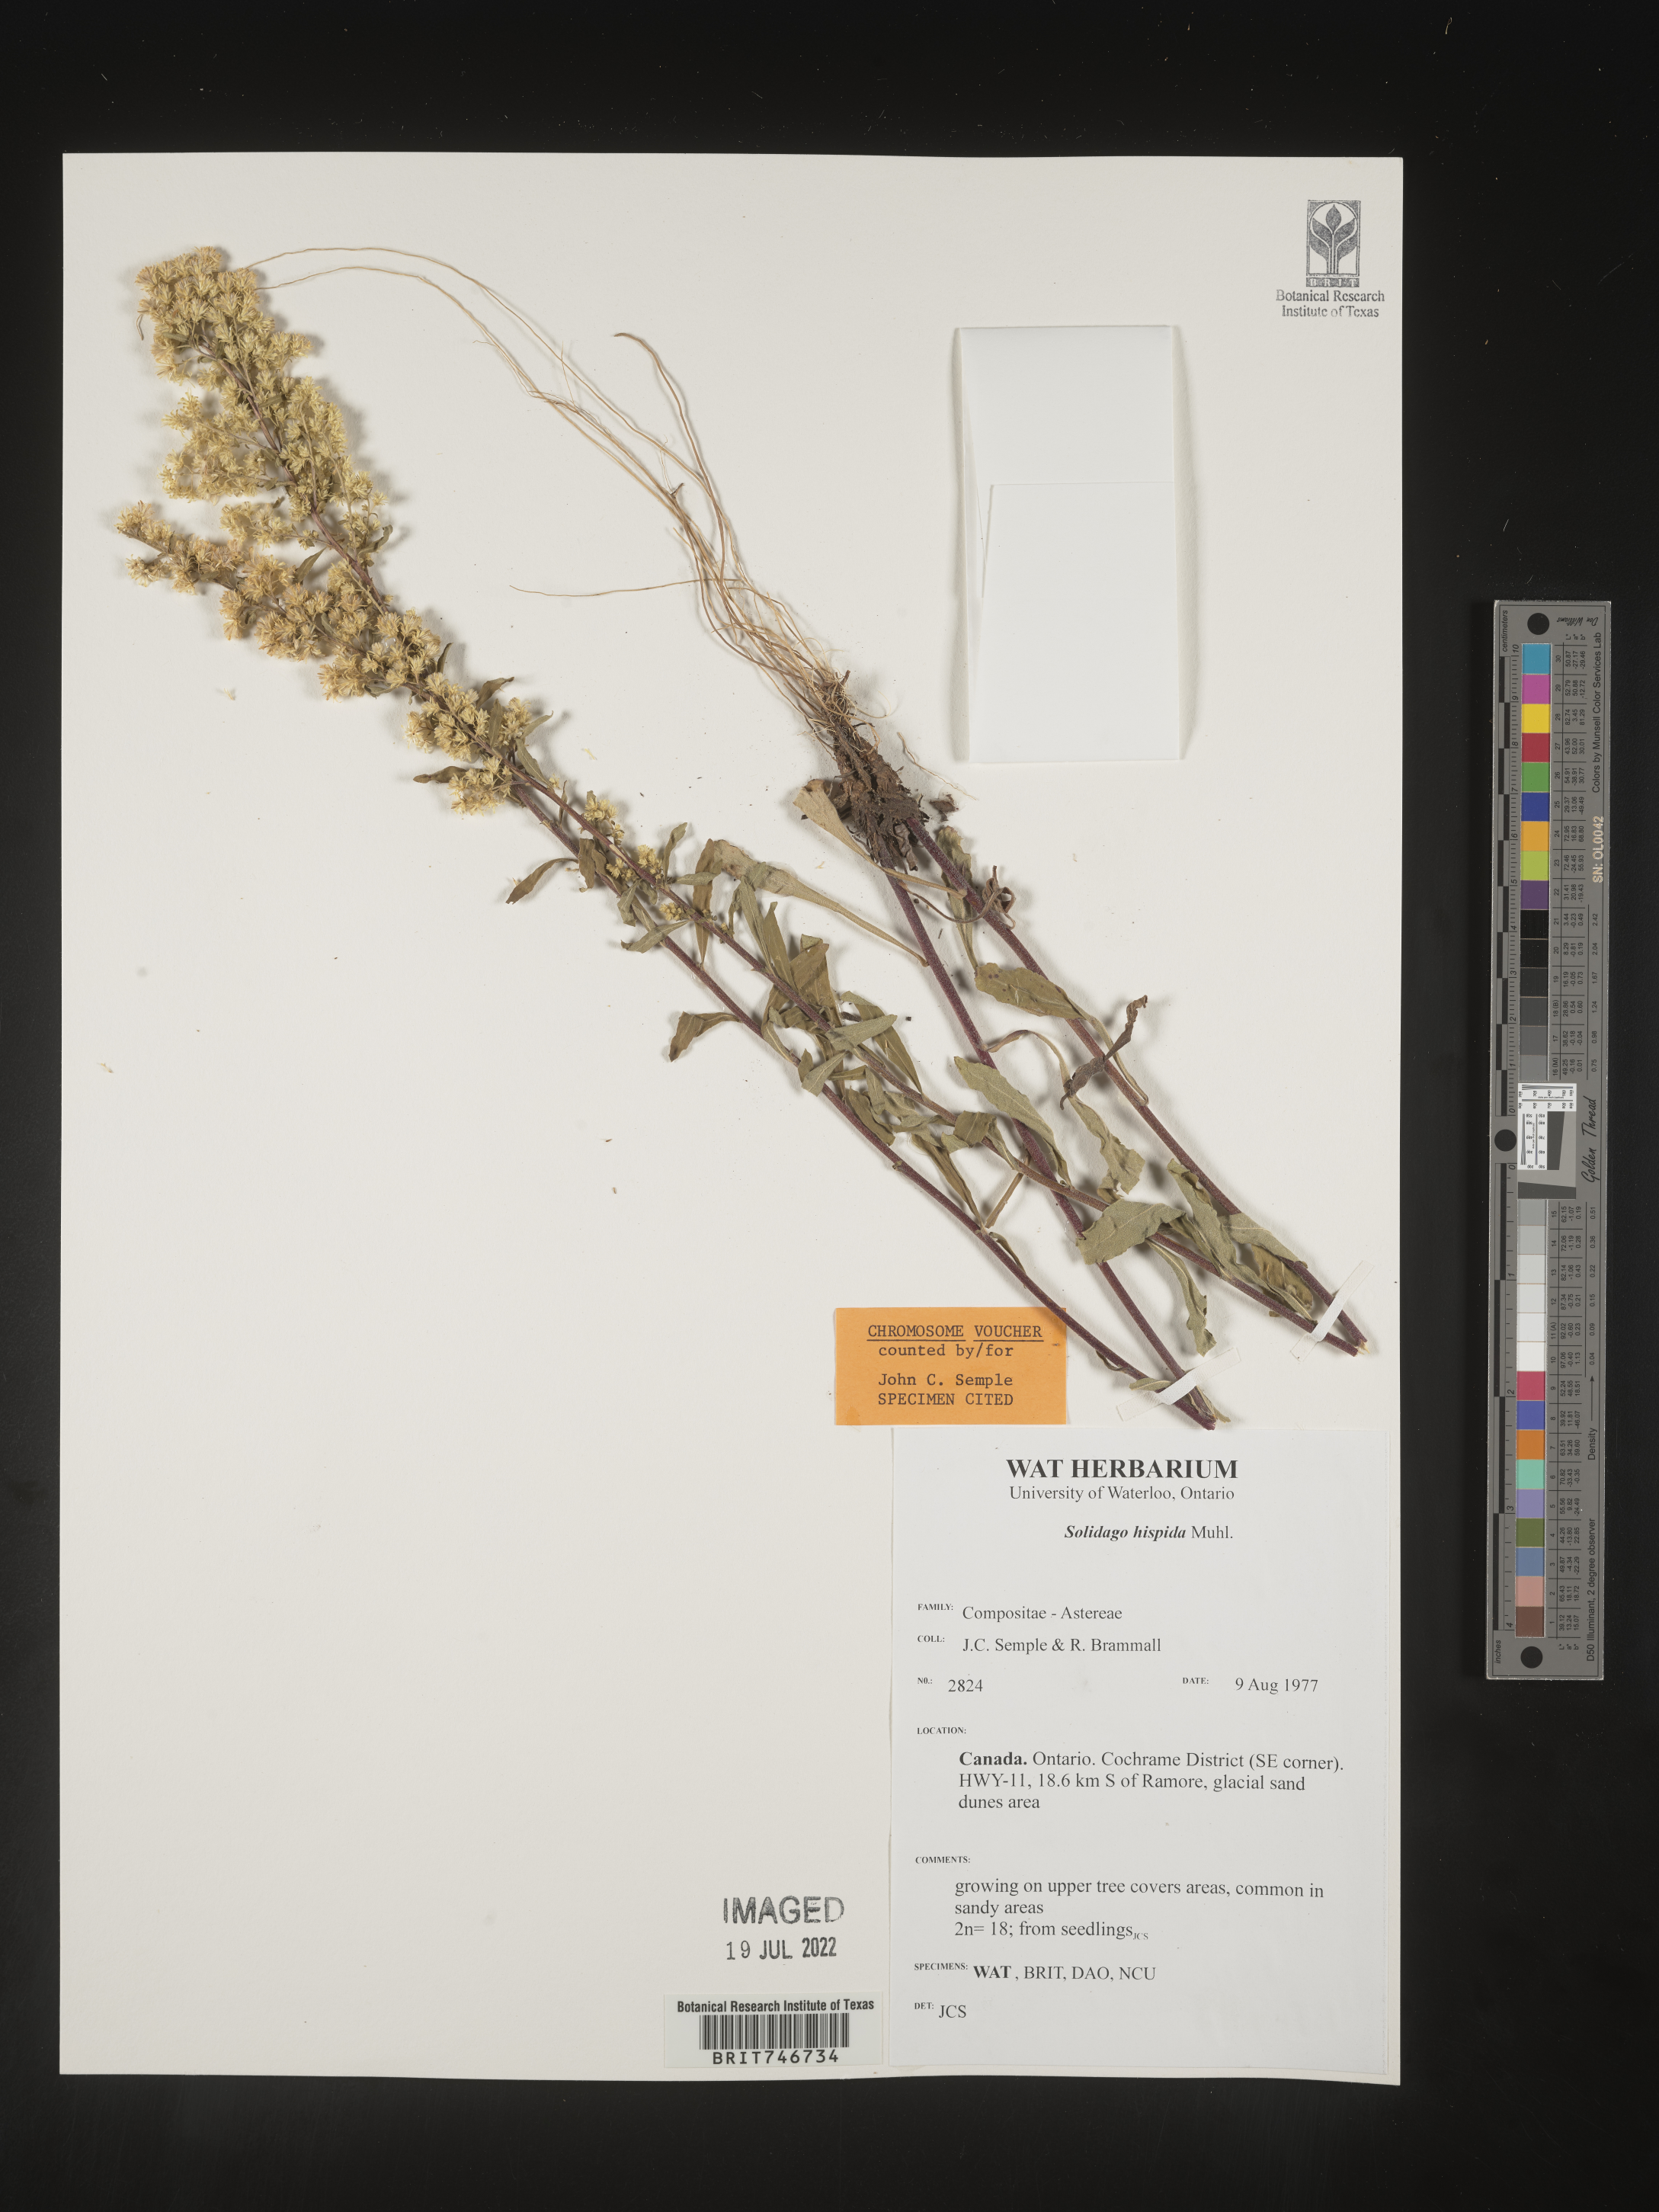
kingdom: Plantae
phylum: Tracheophyta
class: Magnoliopsida
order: Asterales
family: Asteraceae
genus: Solidago
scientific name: Solidago hispida
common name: Hairy goldenrod
